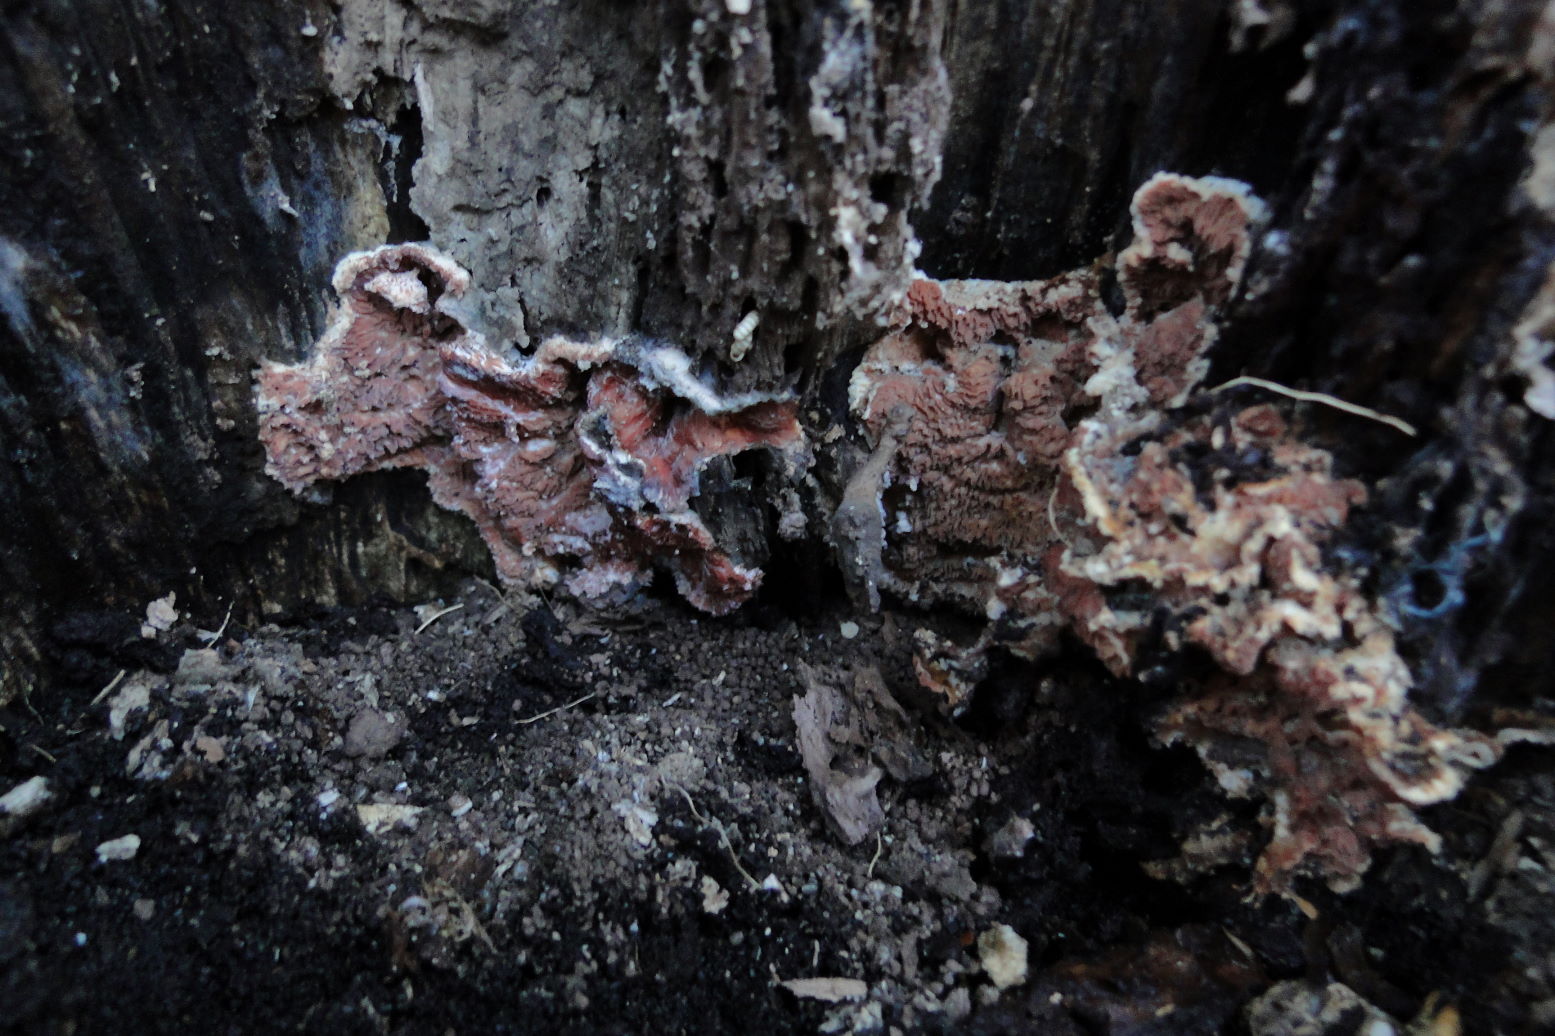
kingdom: Fungi
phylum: Basidiomycota
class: Agaricomycetes
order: Polyporales
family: Meruliaceae
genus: Phlebia
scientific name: Phlebia tremellosa
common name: bævrende åresvamp
